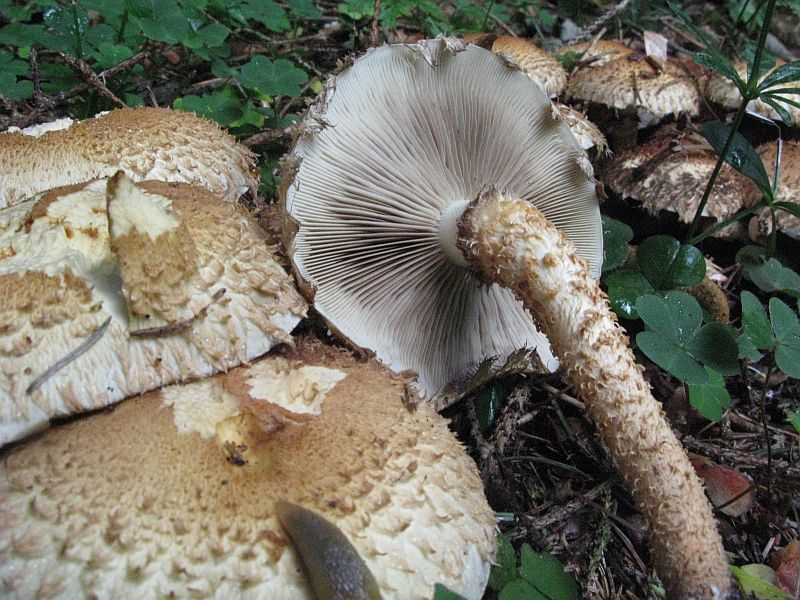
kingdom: Fungi
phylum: Basidiomycota
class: Agaricomycetes
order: Agaricales
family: Strophariaceae
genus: Pholiota
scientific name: Pholiota squarrosa
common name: krumskællet skælhat
